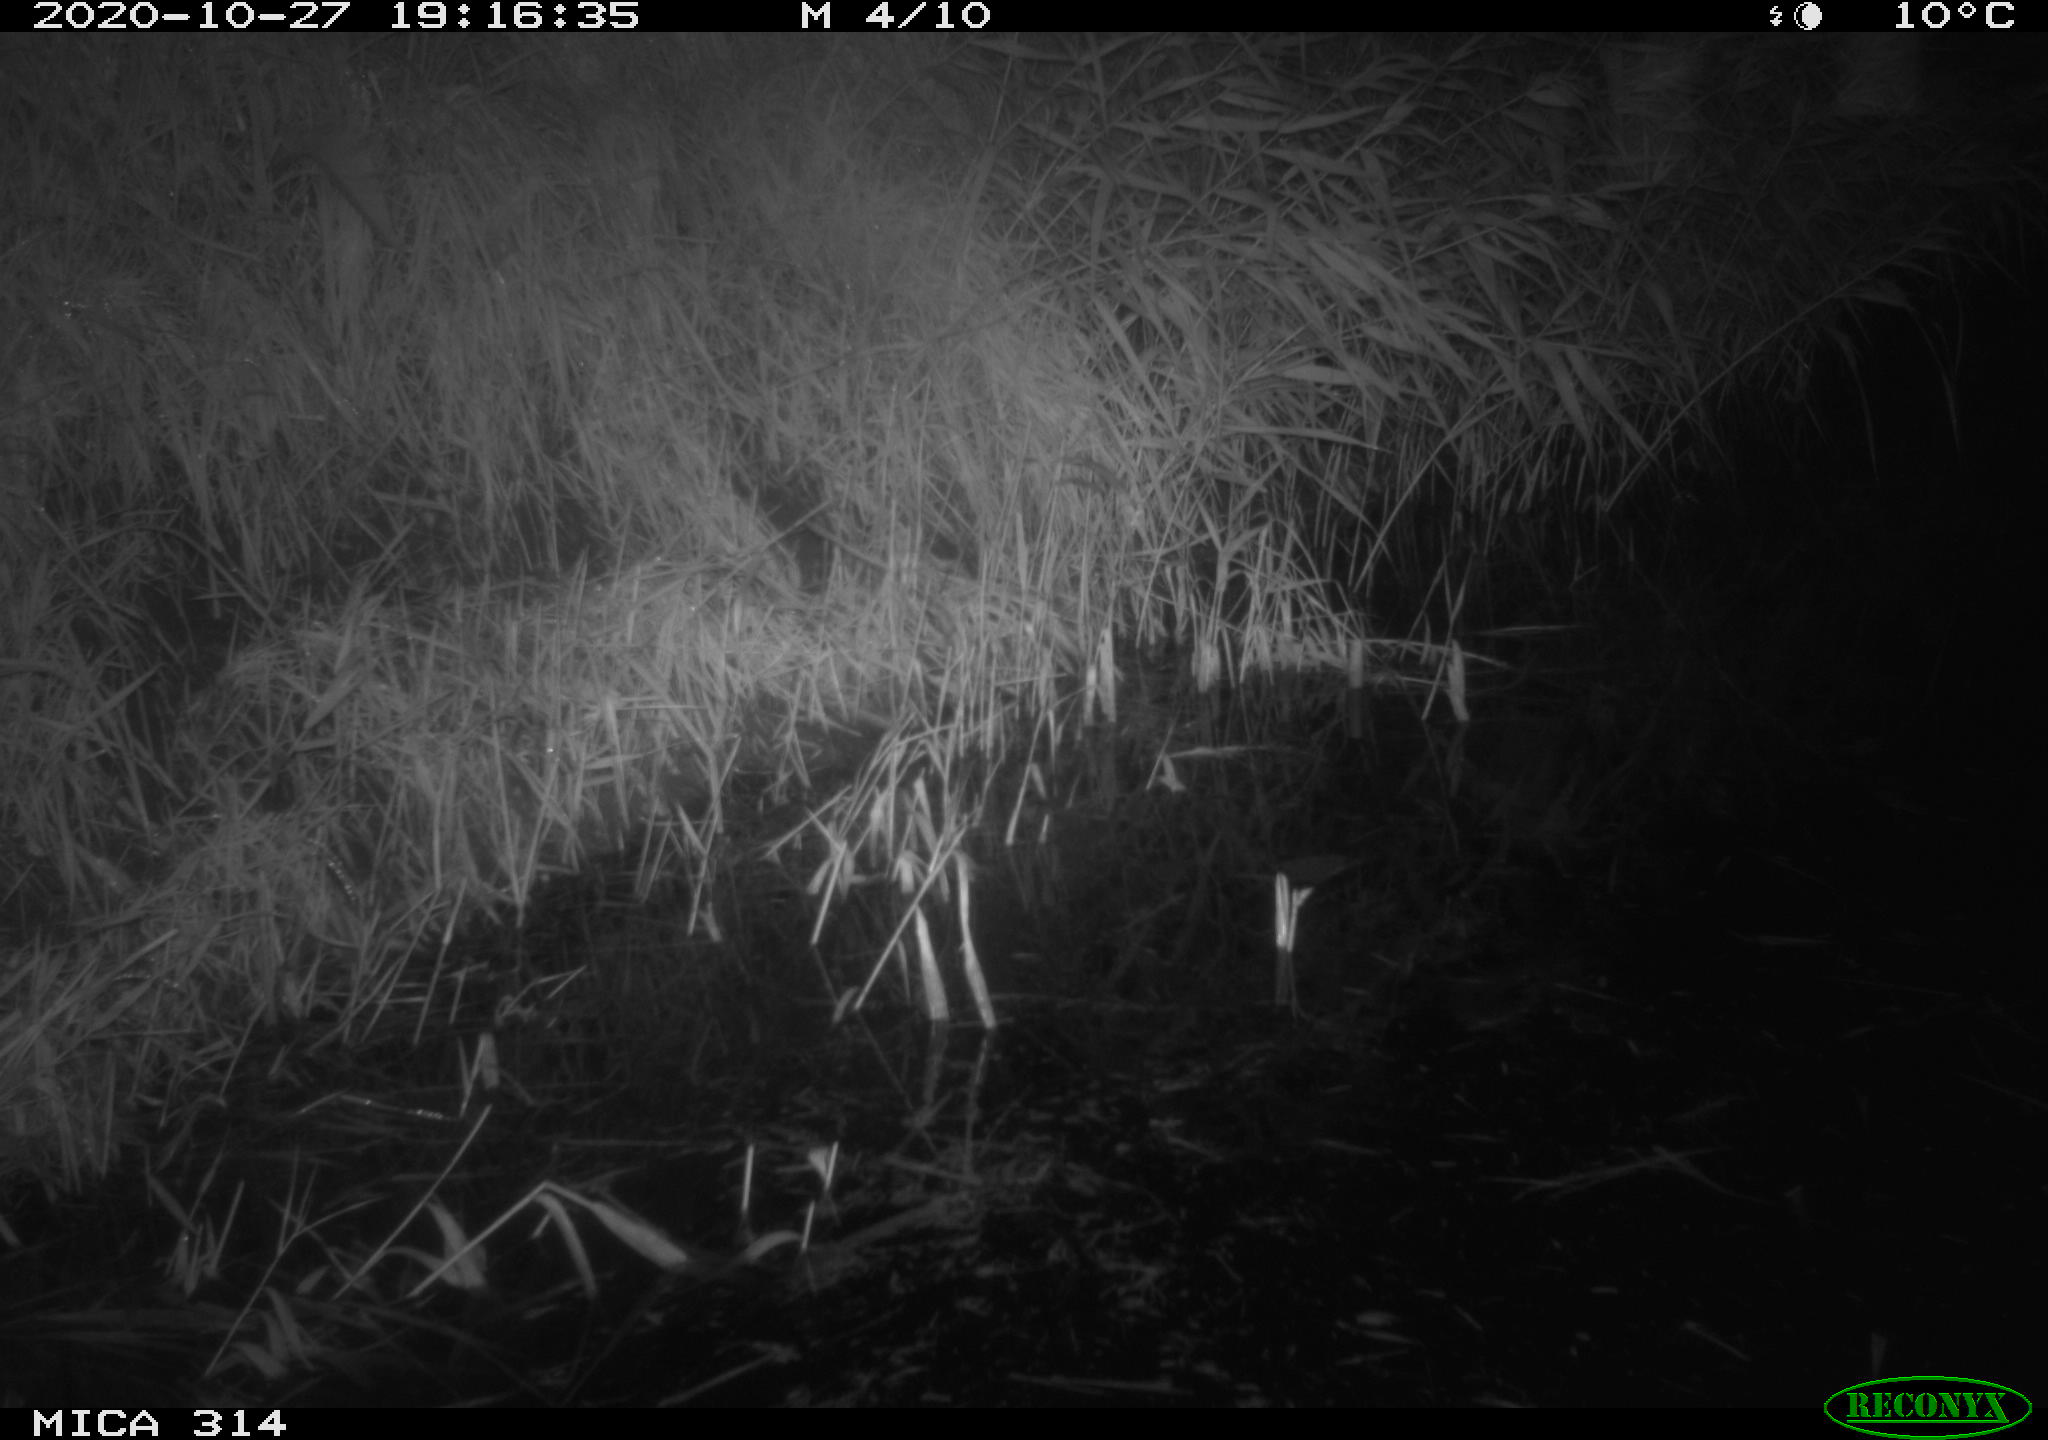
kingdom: Animalia
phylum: Chordata
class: Mammalia
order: Rodentia
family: Muridae
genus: Rattus
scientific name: Rattus norvegicus
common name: Brown rat
